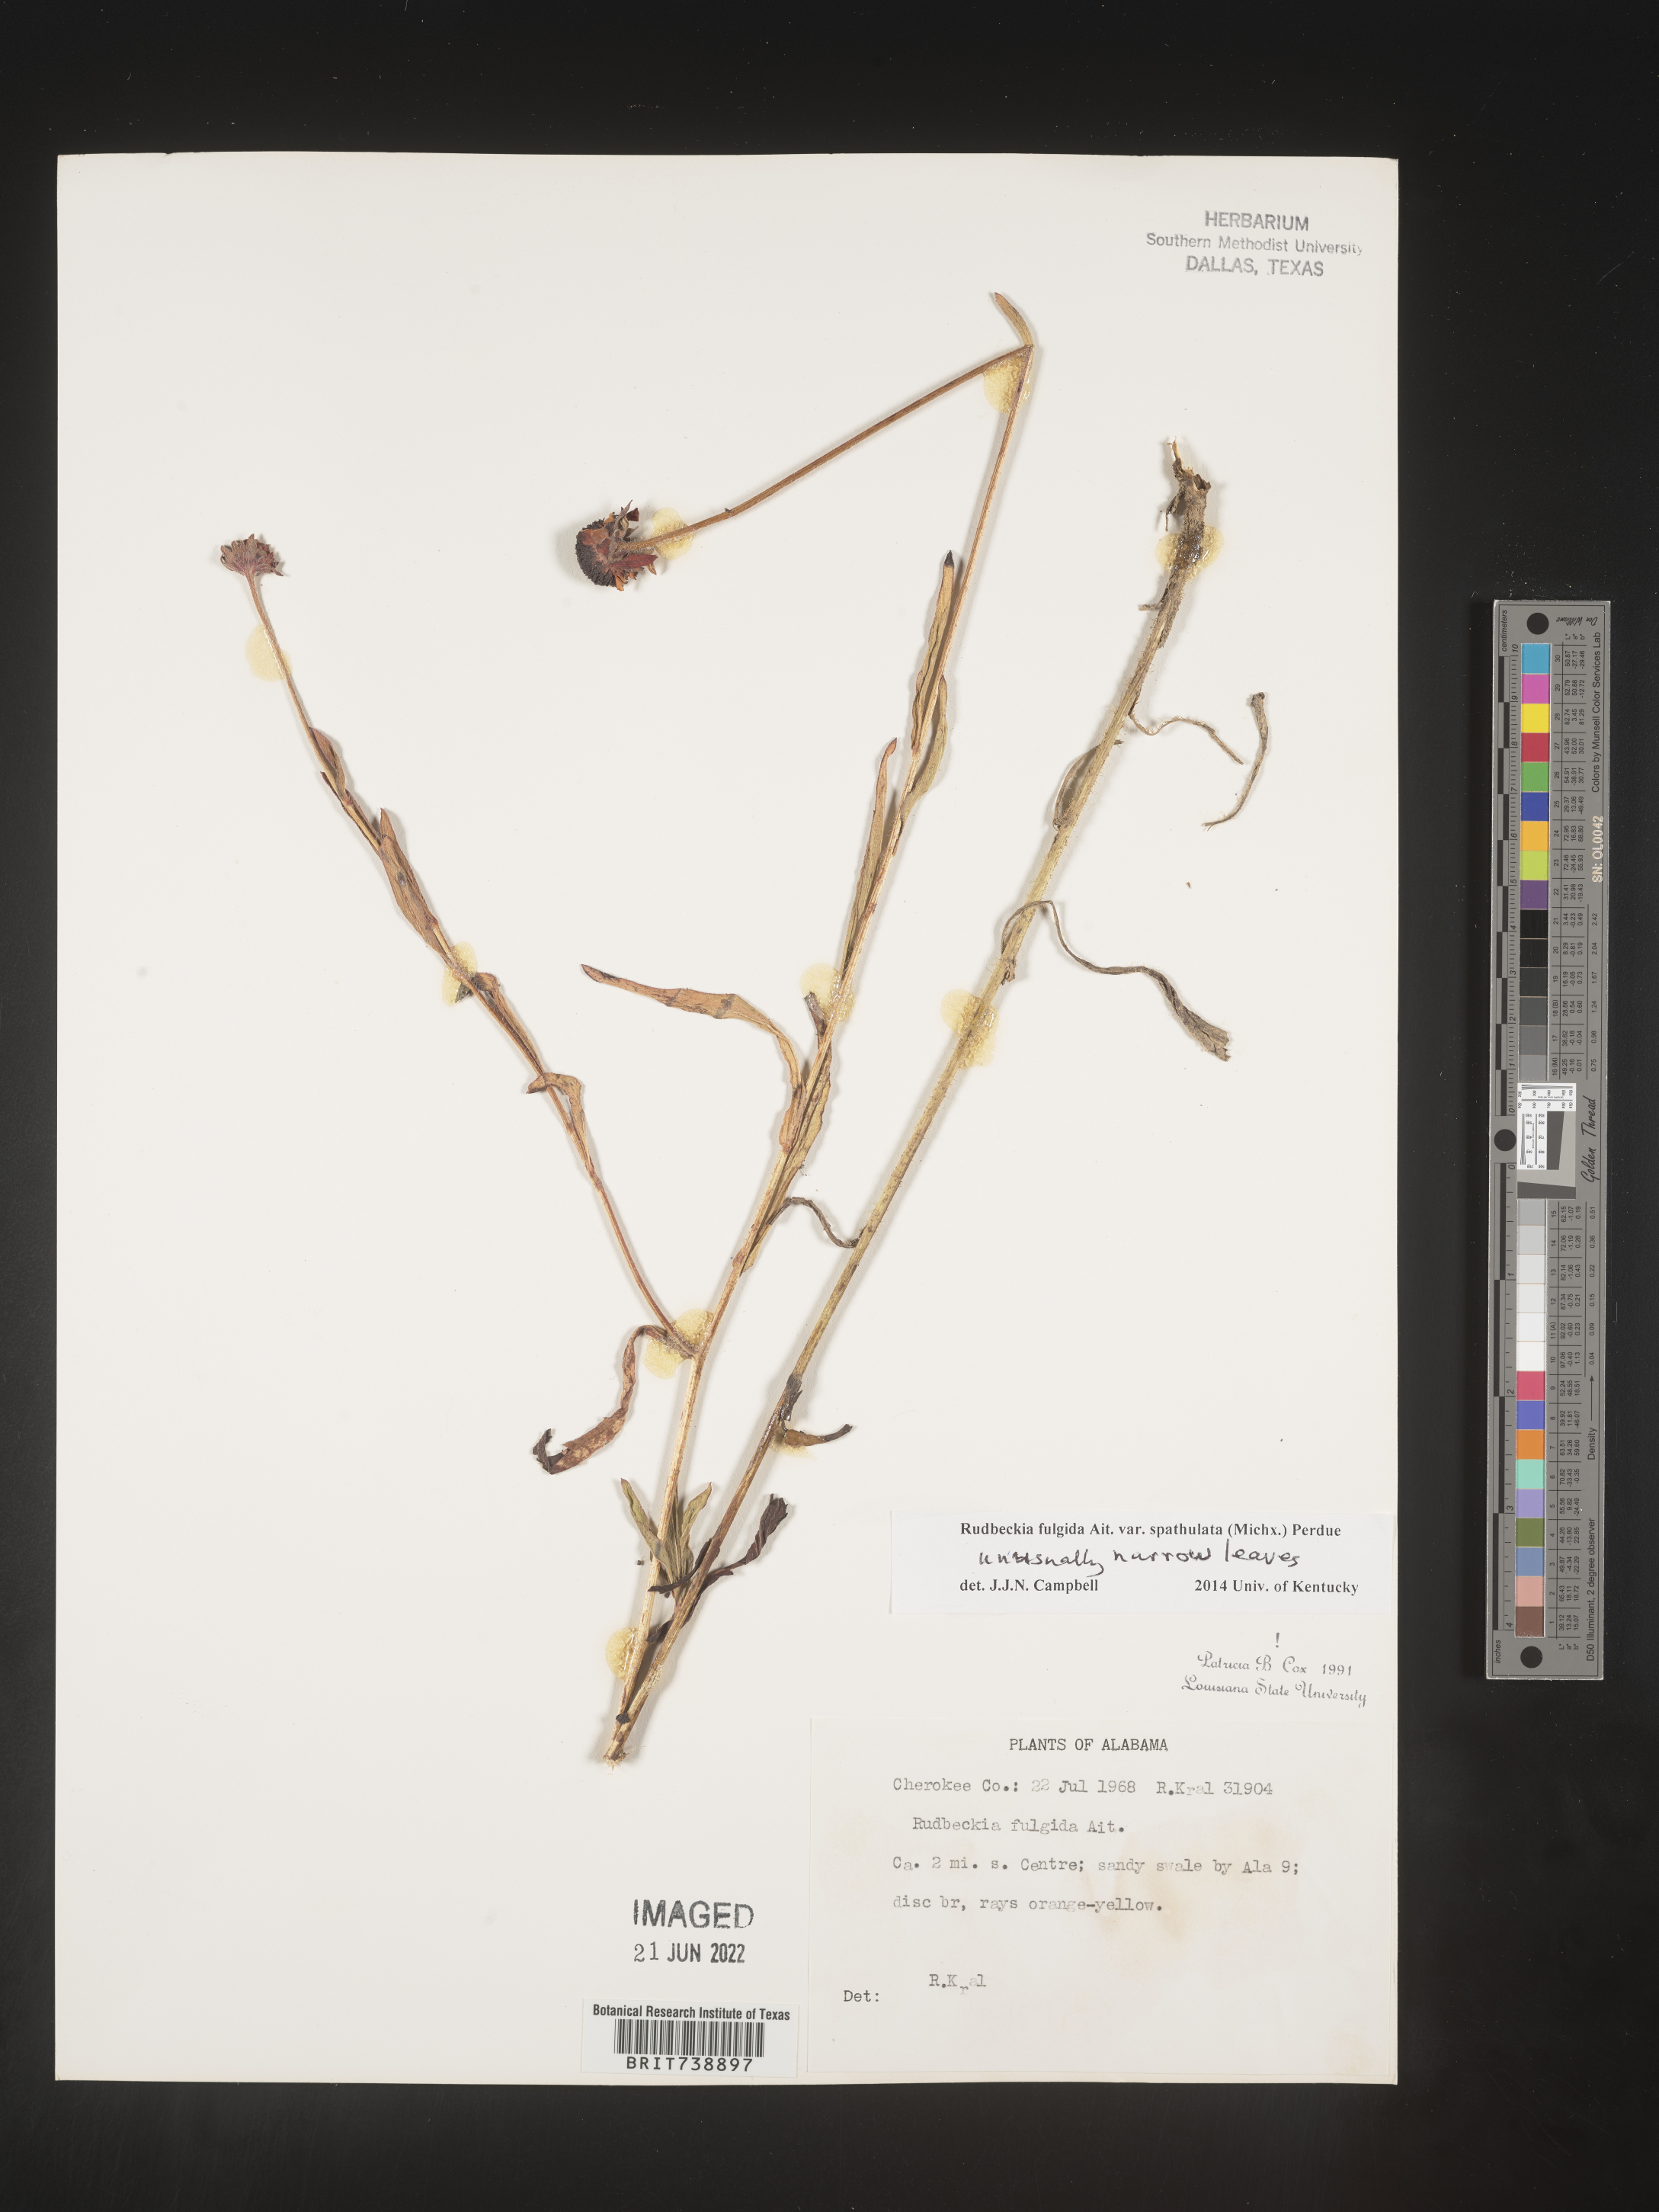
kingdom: Plantae
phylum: Tracheophyta
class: Magnoliopsida
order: Asterales
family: Asteraceae
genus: Rudbeckia
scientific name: Rudbeckia fulgida
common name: Perennial coneflower
